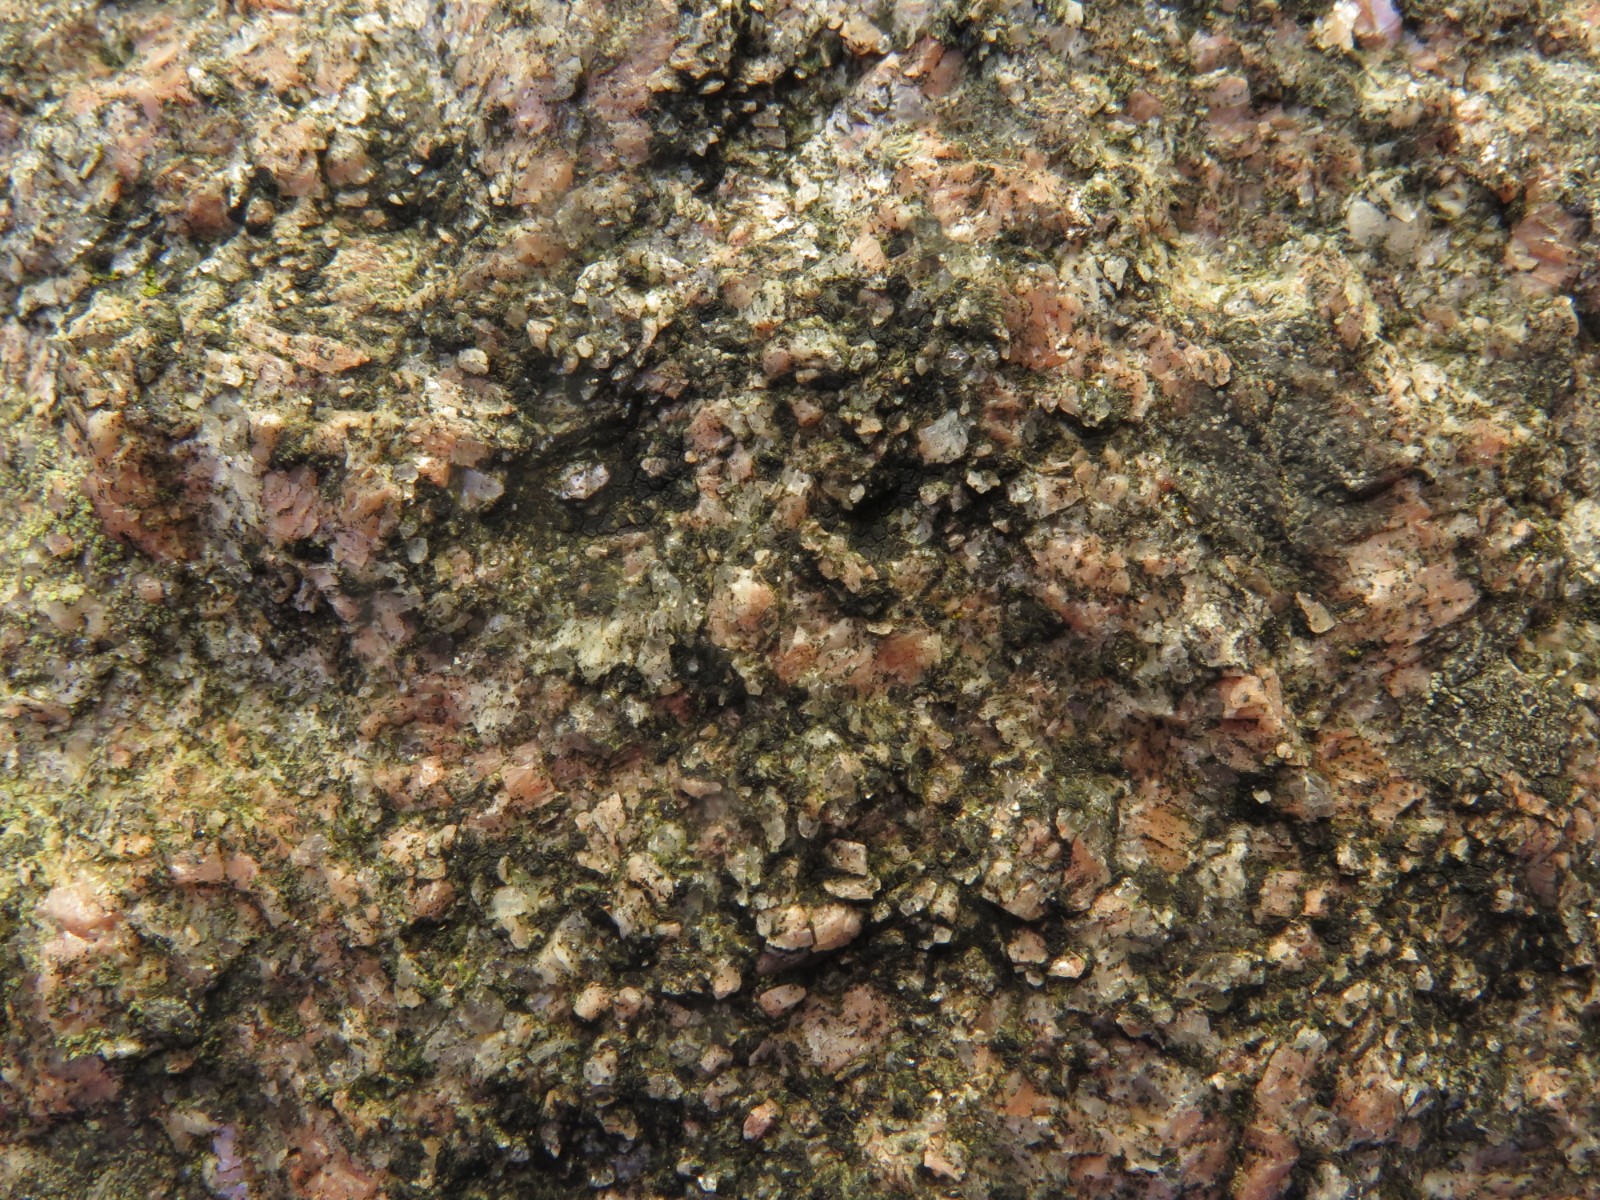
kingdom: Fungi
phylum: Ascomycota
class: Lecanoromycetes
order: Acarosporales
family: Acarosporaceae
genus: Acarospora
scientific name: Acarospora privigna
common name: sort foldekantlav
